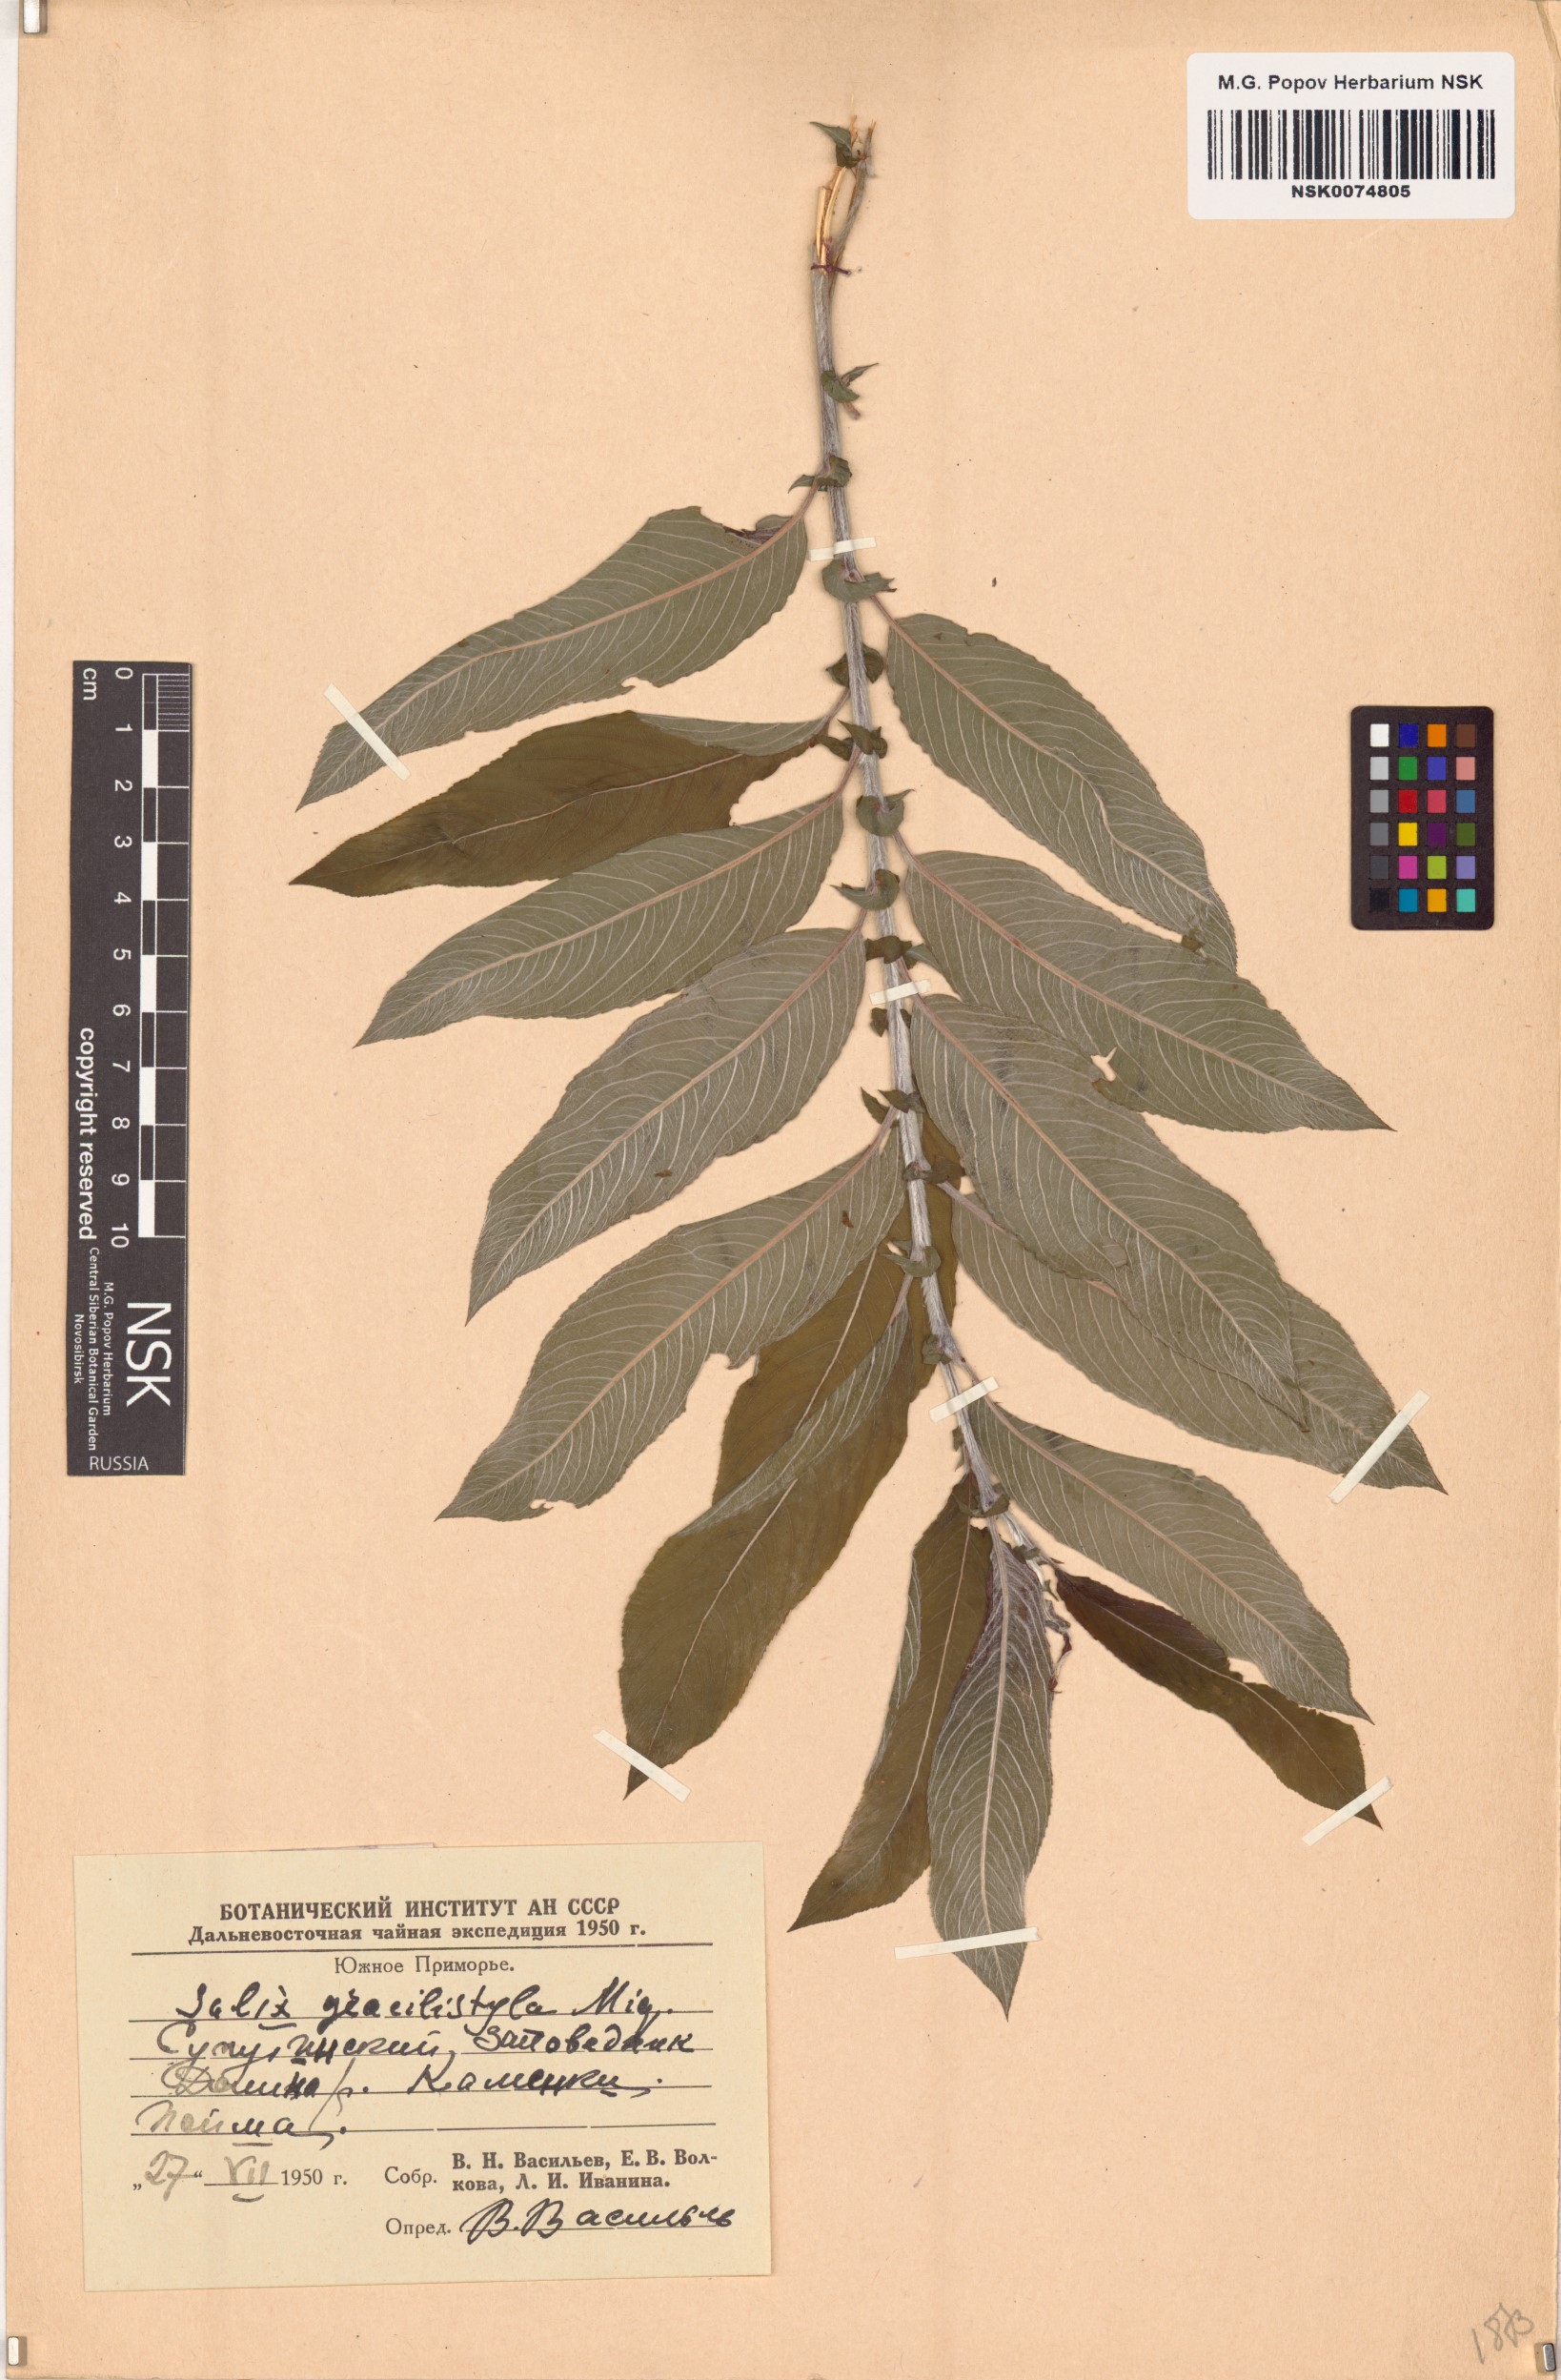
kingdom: Plantae
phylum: Tracheophyta
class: Magnoliopsida
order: Malpighiales
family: Salicaceae
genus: Salix
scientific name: Salix gracilistyla
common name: Rose-gold pussy willow
